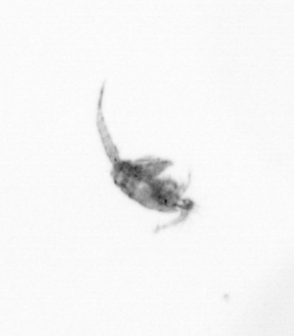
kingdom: Animalia
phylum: Arthropoda
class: Copepoda
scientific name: Copepoda
